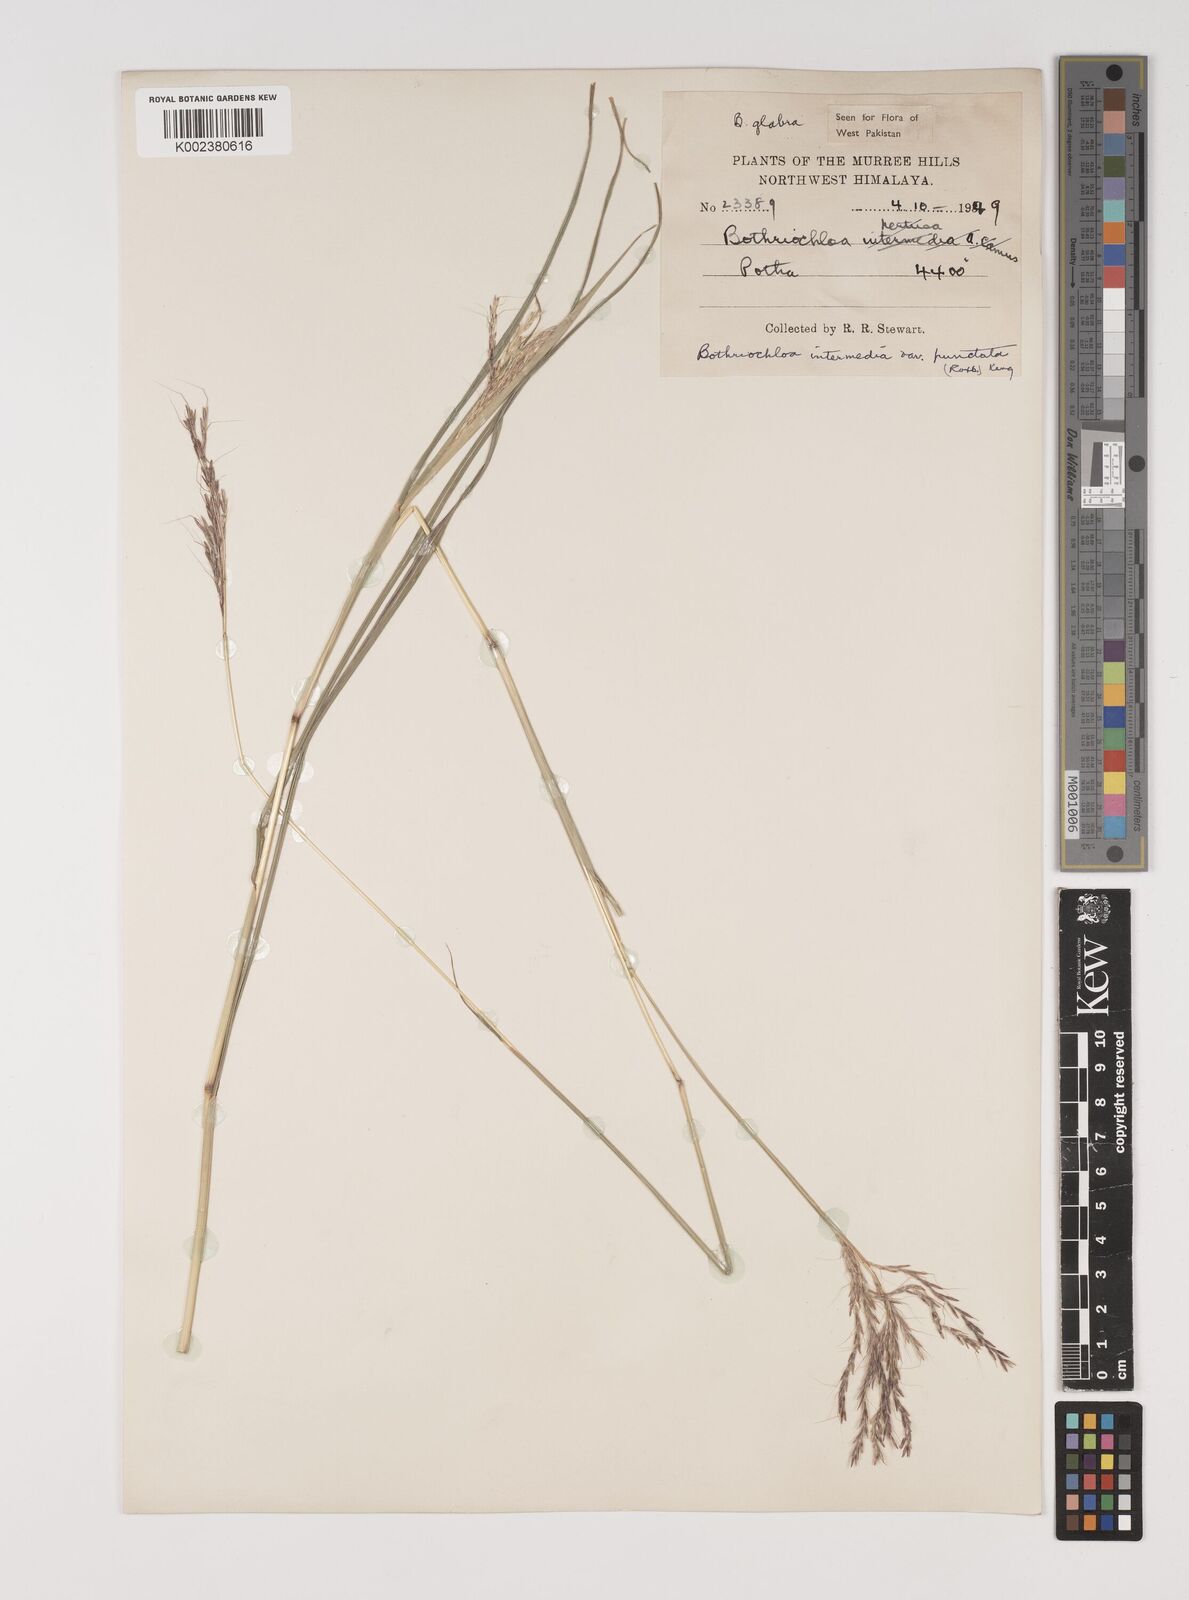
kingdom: Plantae
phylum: Tracheophyta
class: Liliopsida
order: Poales
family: Poaceae
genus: Bothriochloa
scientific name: Bothriochloa bladhii
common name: Caucasian bluestem
